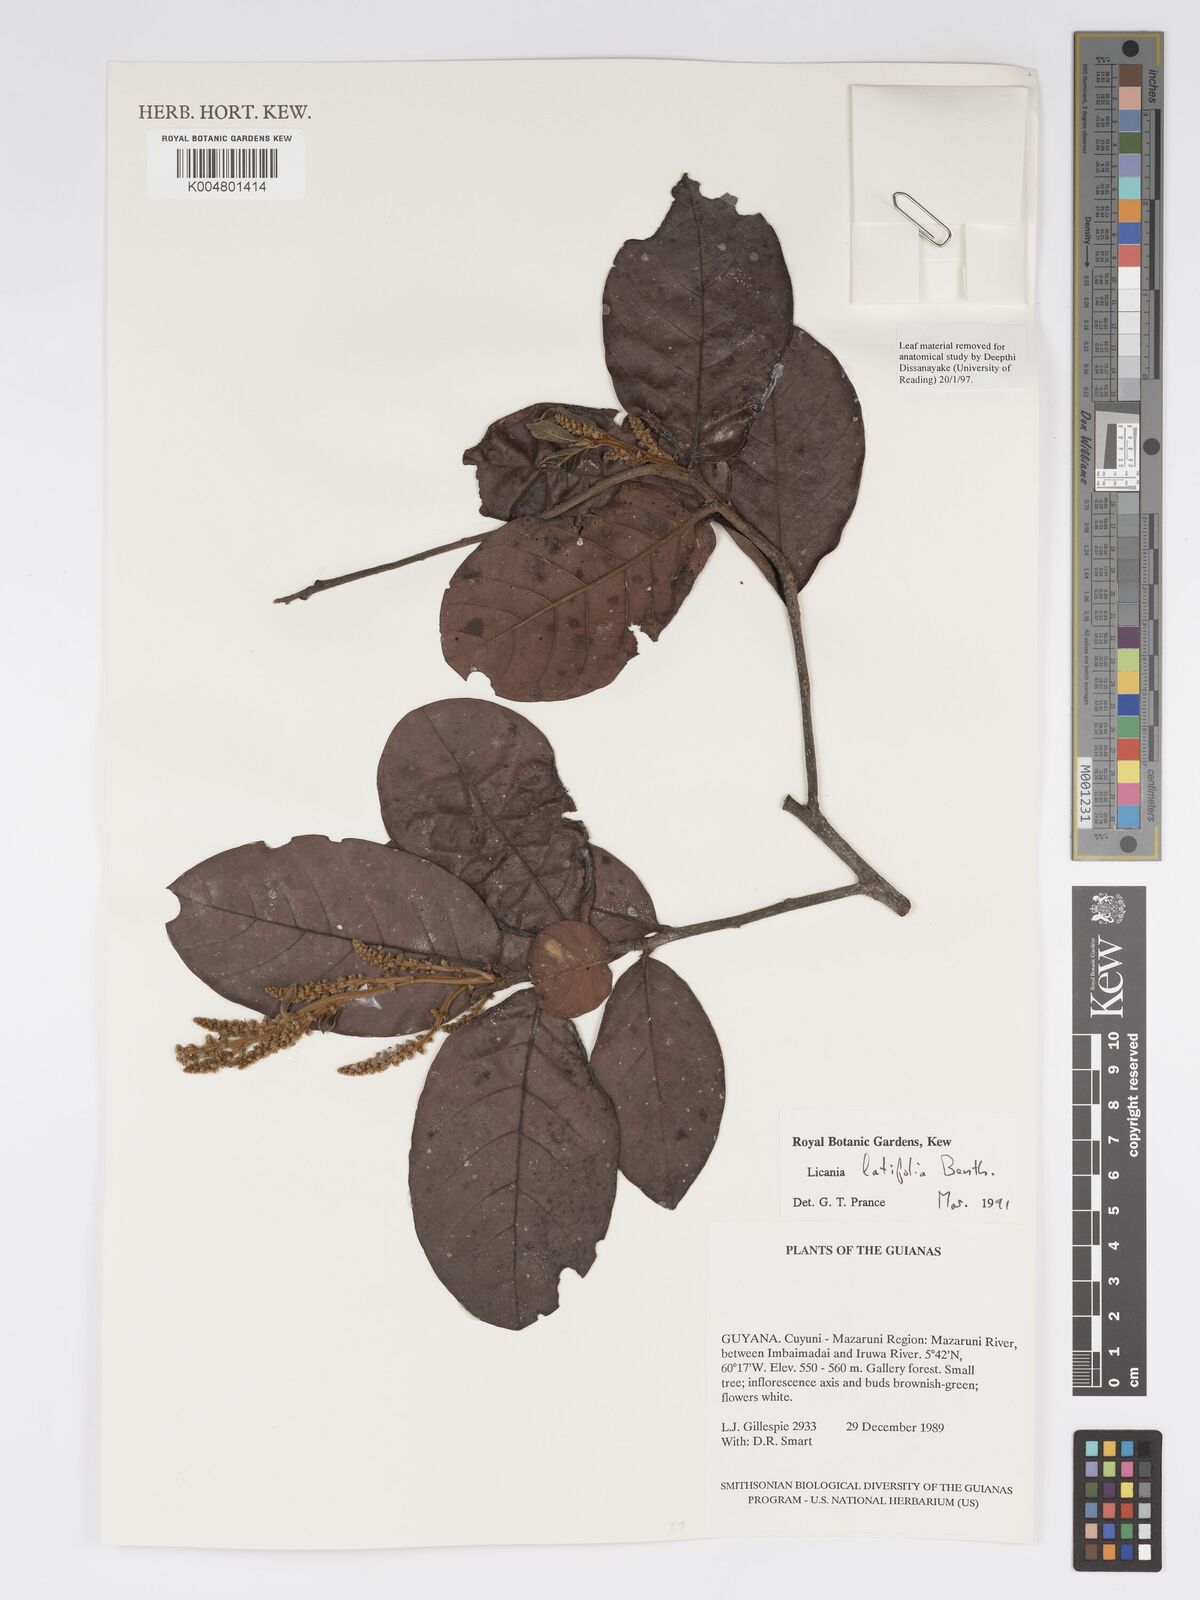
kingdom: Plantae
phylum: Tracheophyta
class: Magnoliopsida
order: Malpighiales
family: Chrysobalanaceae
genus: Hymenopus
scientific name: Hymenopus latifolius
